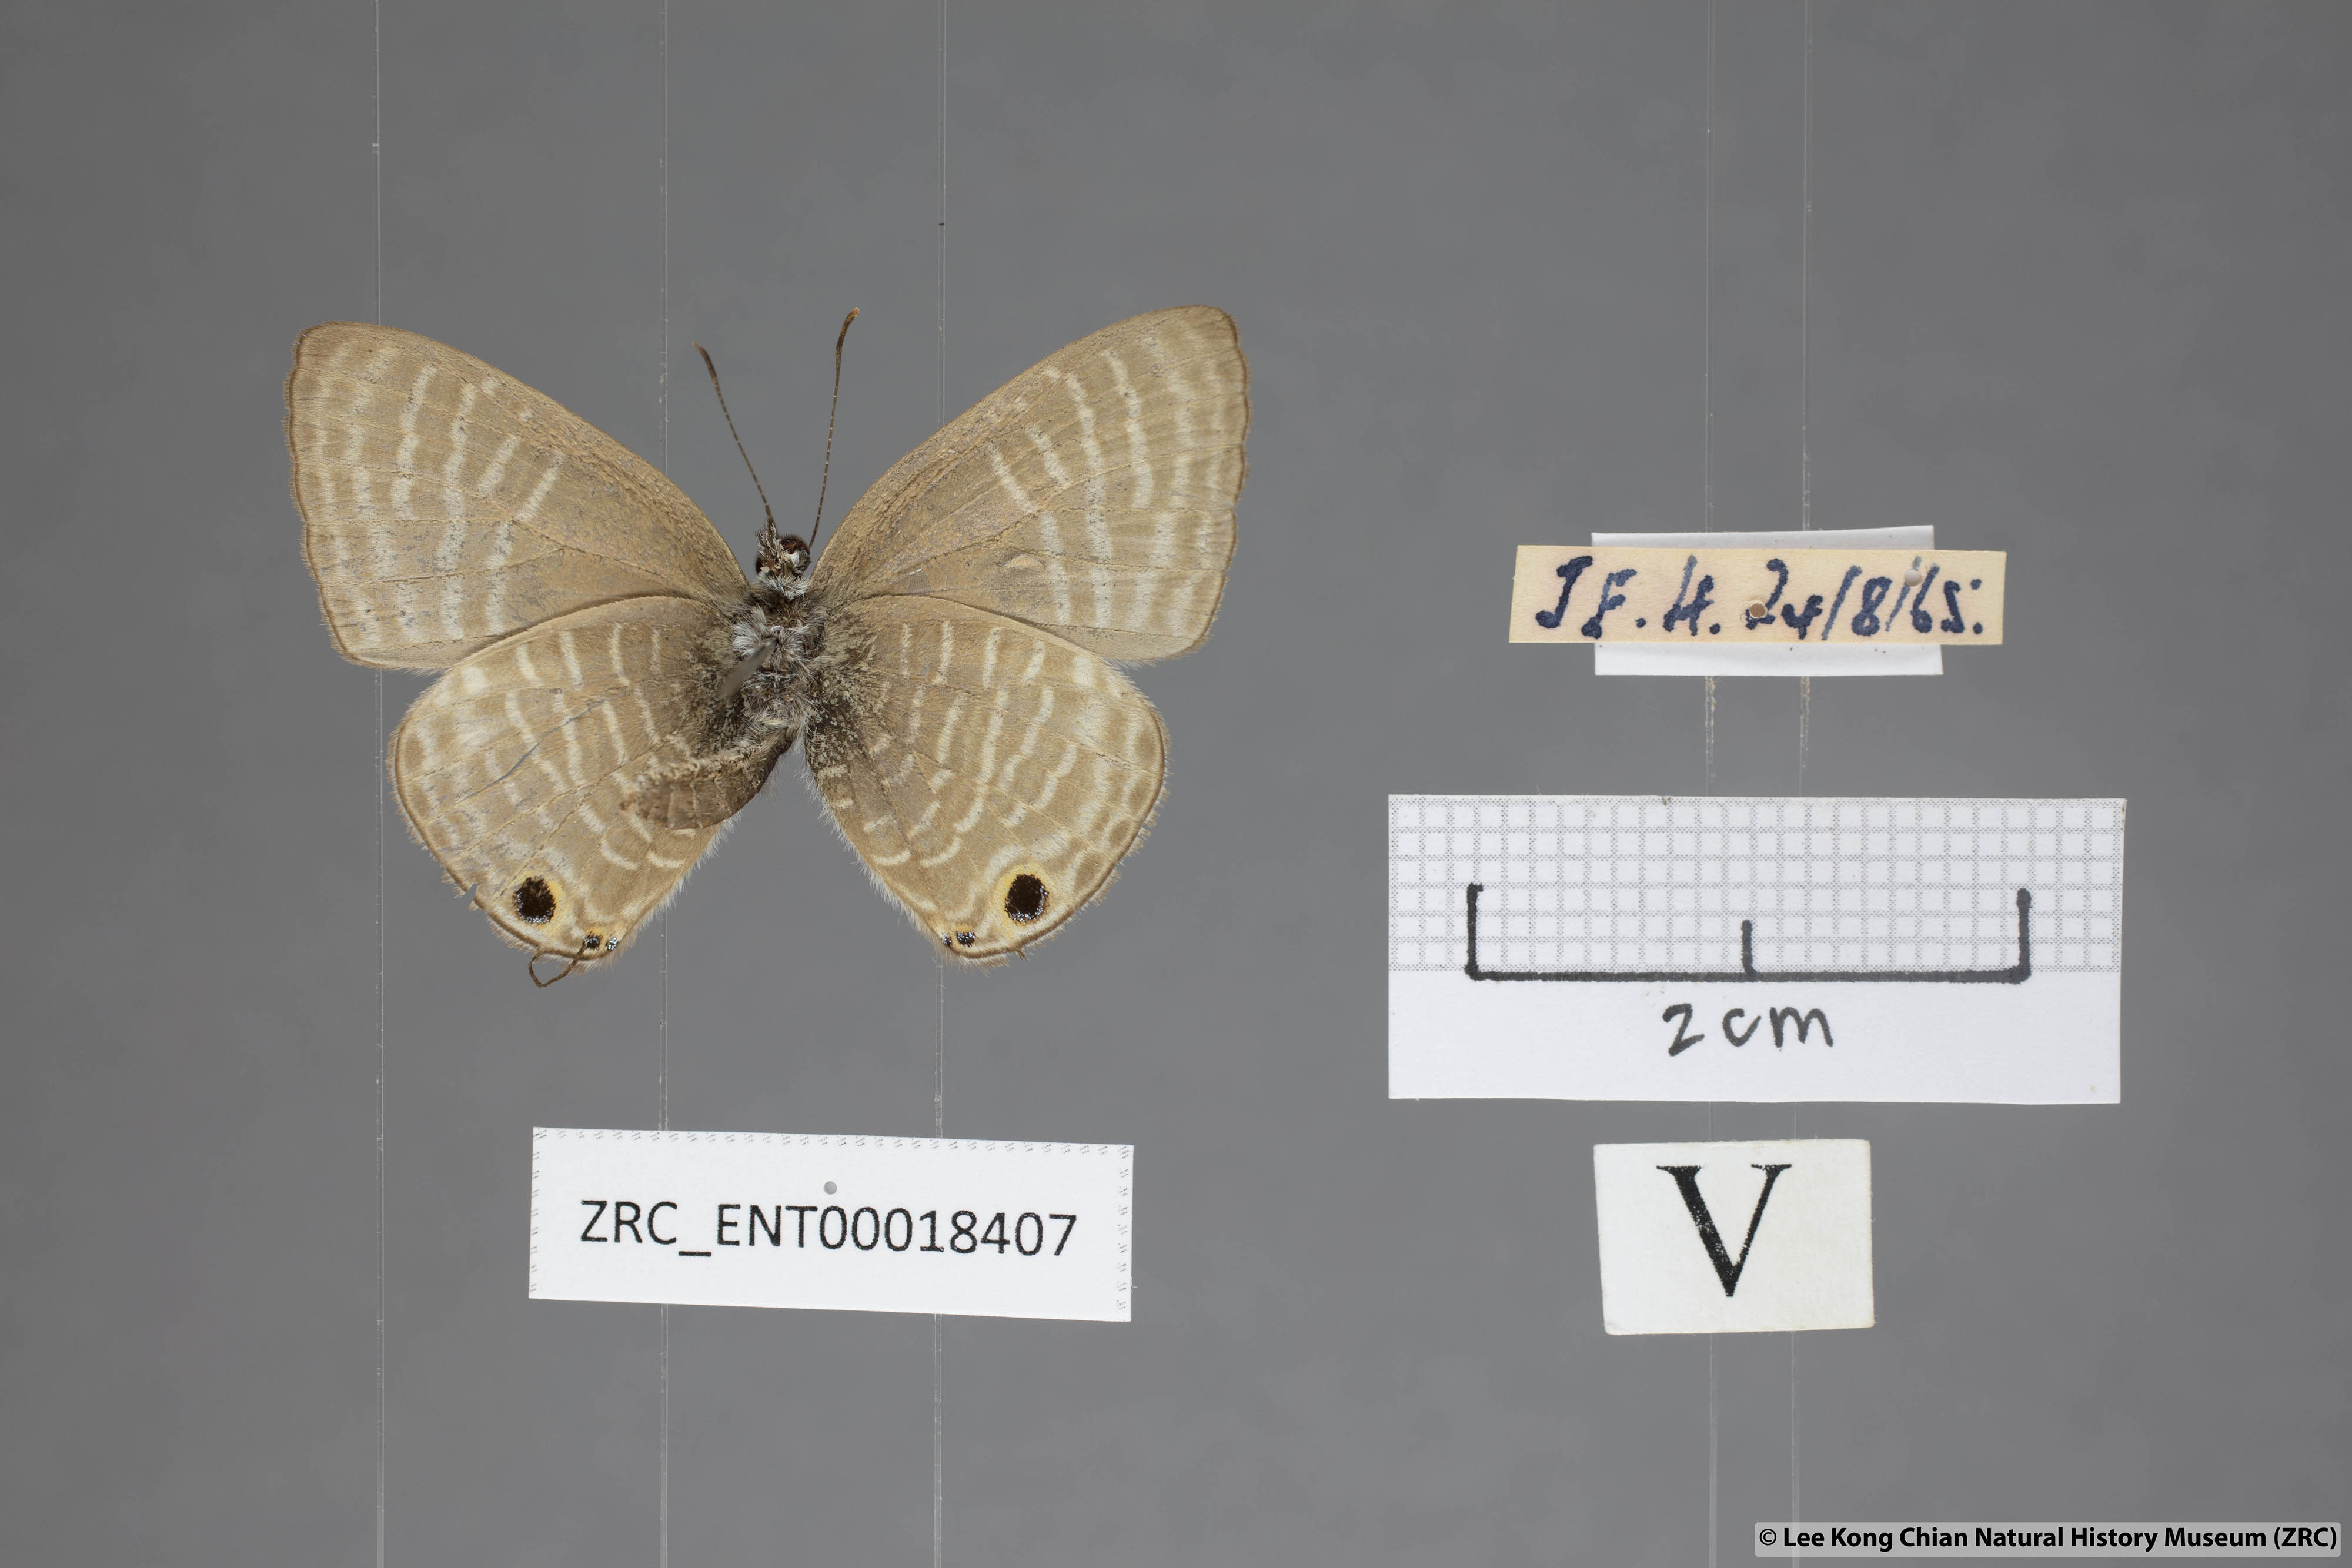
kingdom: Animalia
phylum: Arthropoda
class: Insecta
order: Lepidoptera
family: Lycaenidae
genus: Nacaduba
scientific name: Nacaduba pactolus
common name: Large fourline blue
